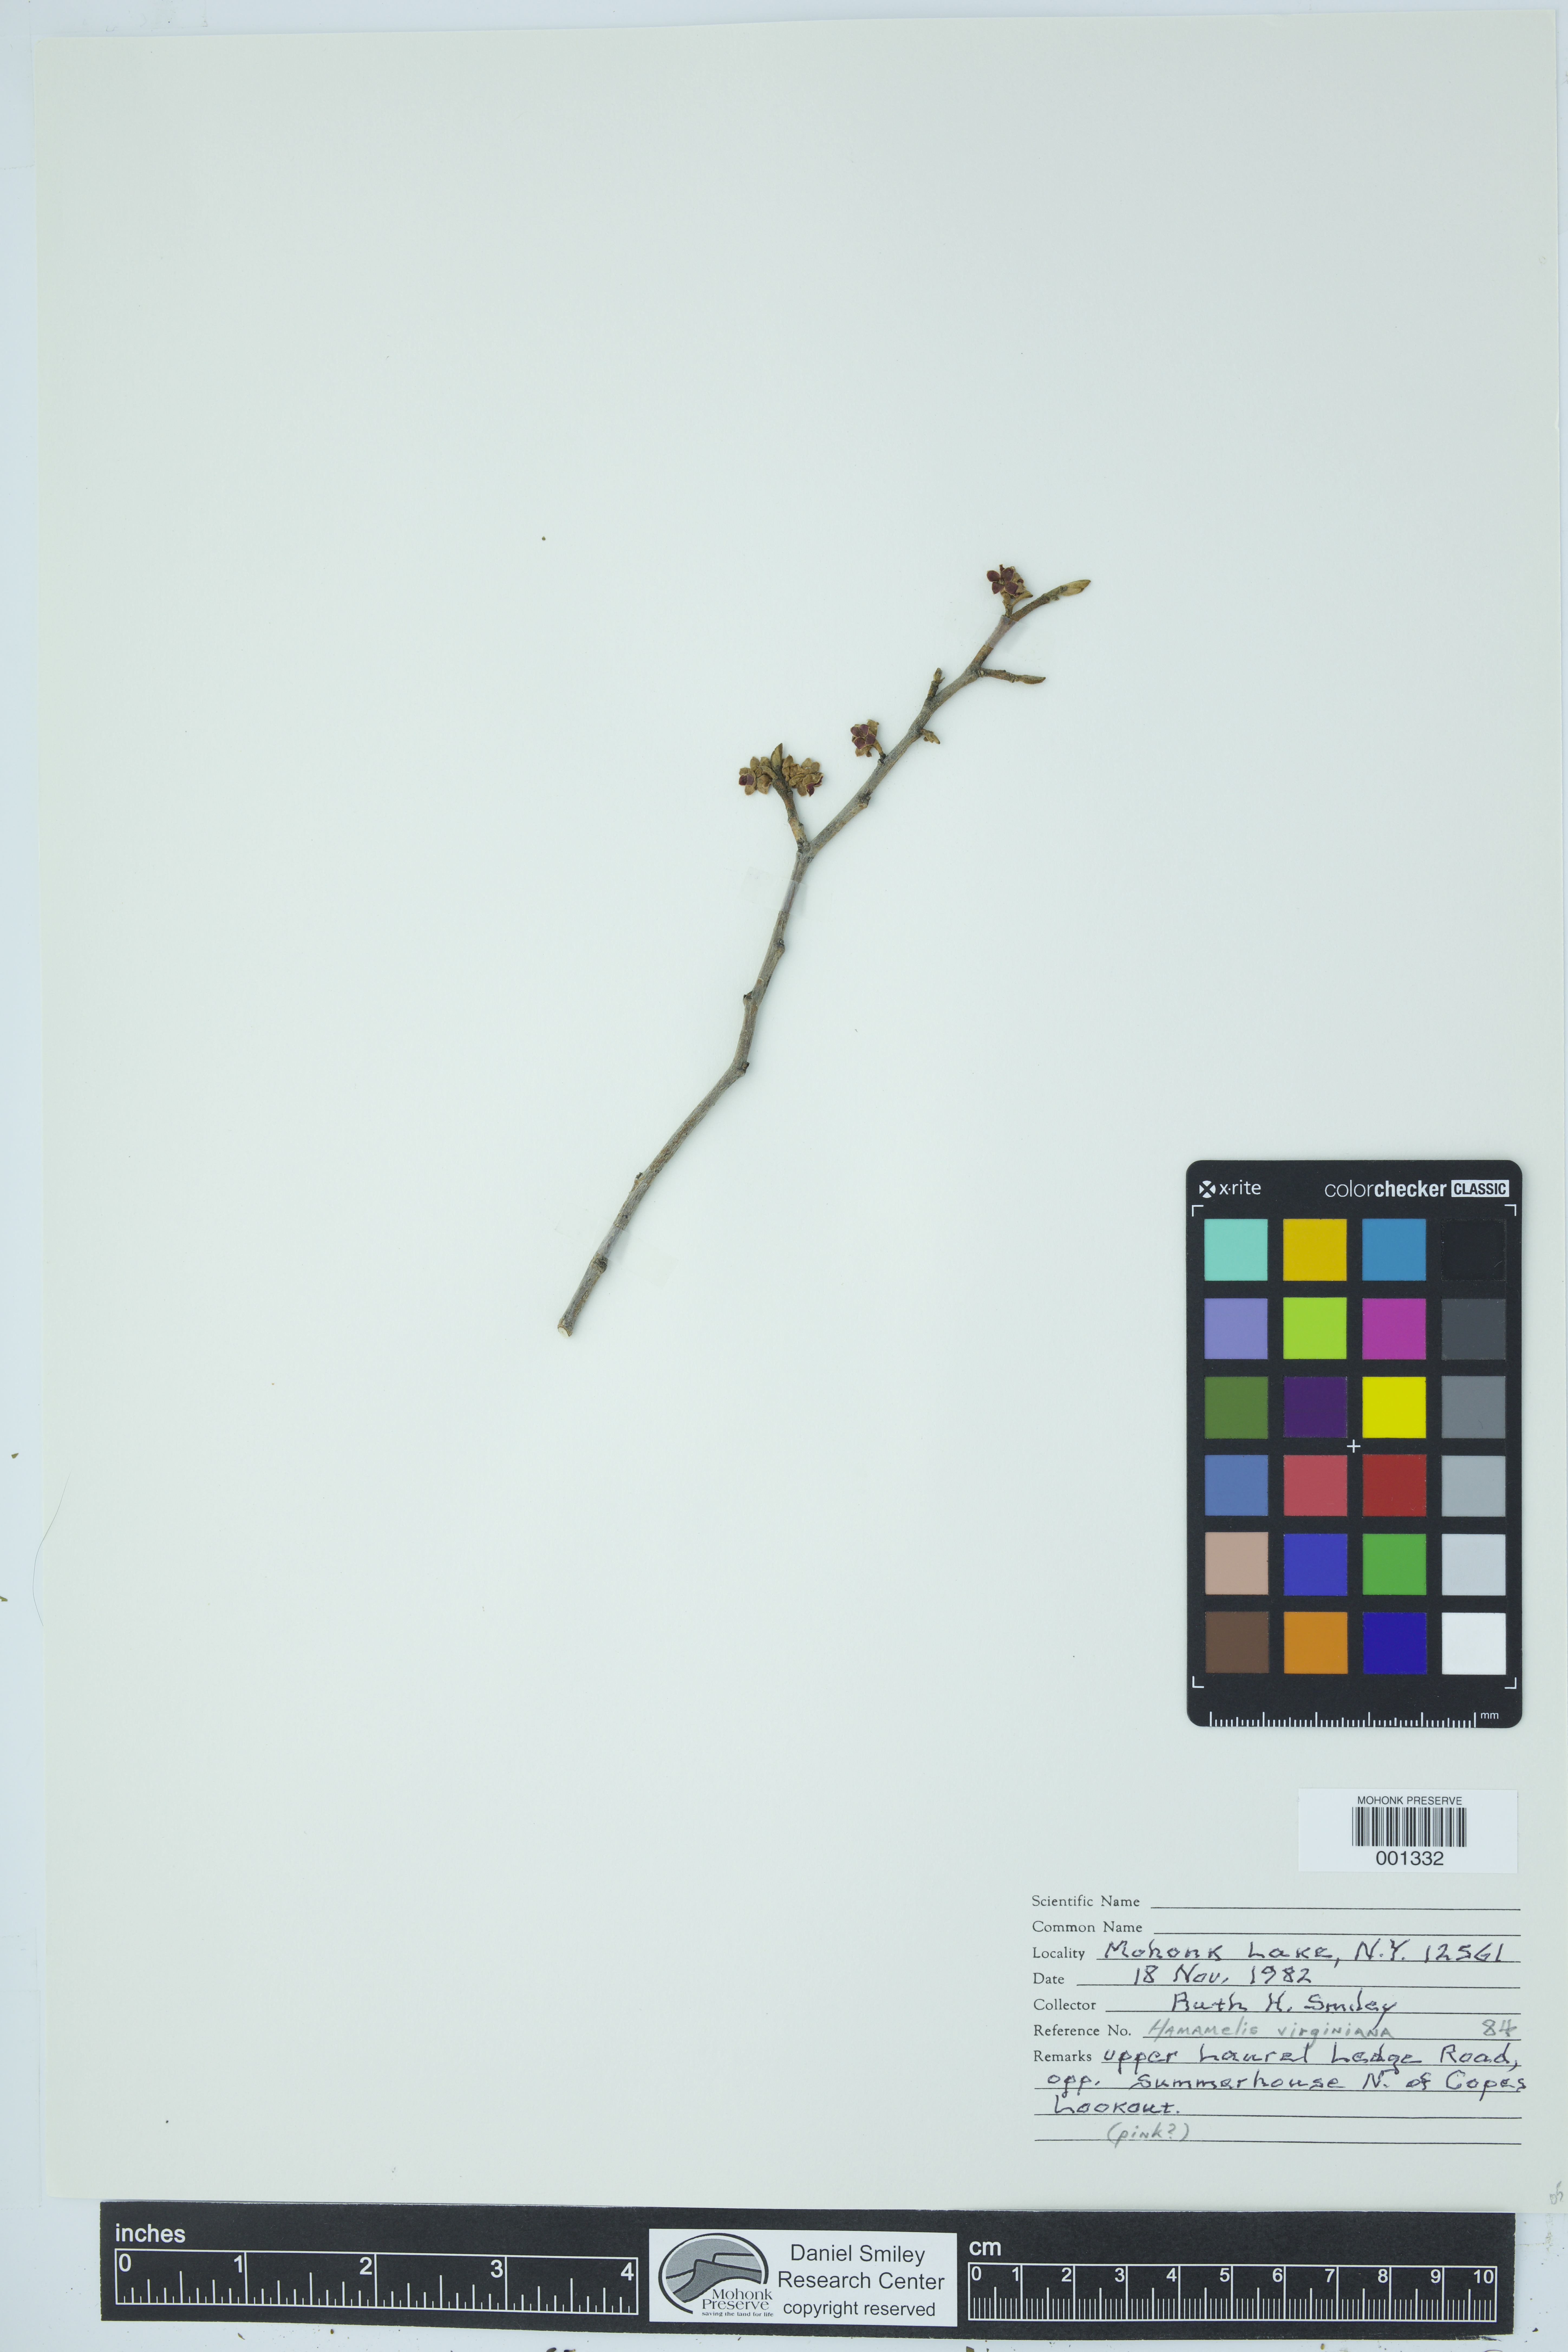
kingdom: Plantae
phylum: Tracheophyta
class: Magnoliopsida
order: Saxifragales
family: Hamamelidaceae
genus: Hamamelis
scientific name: Hamamelis virginiana
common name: Witch-hazel
